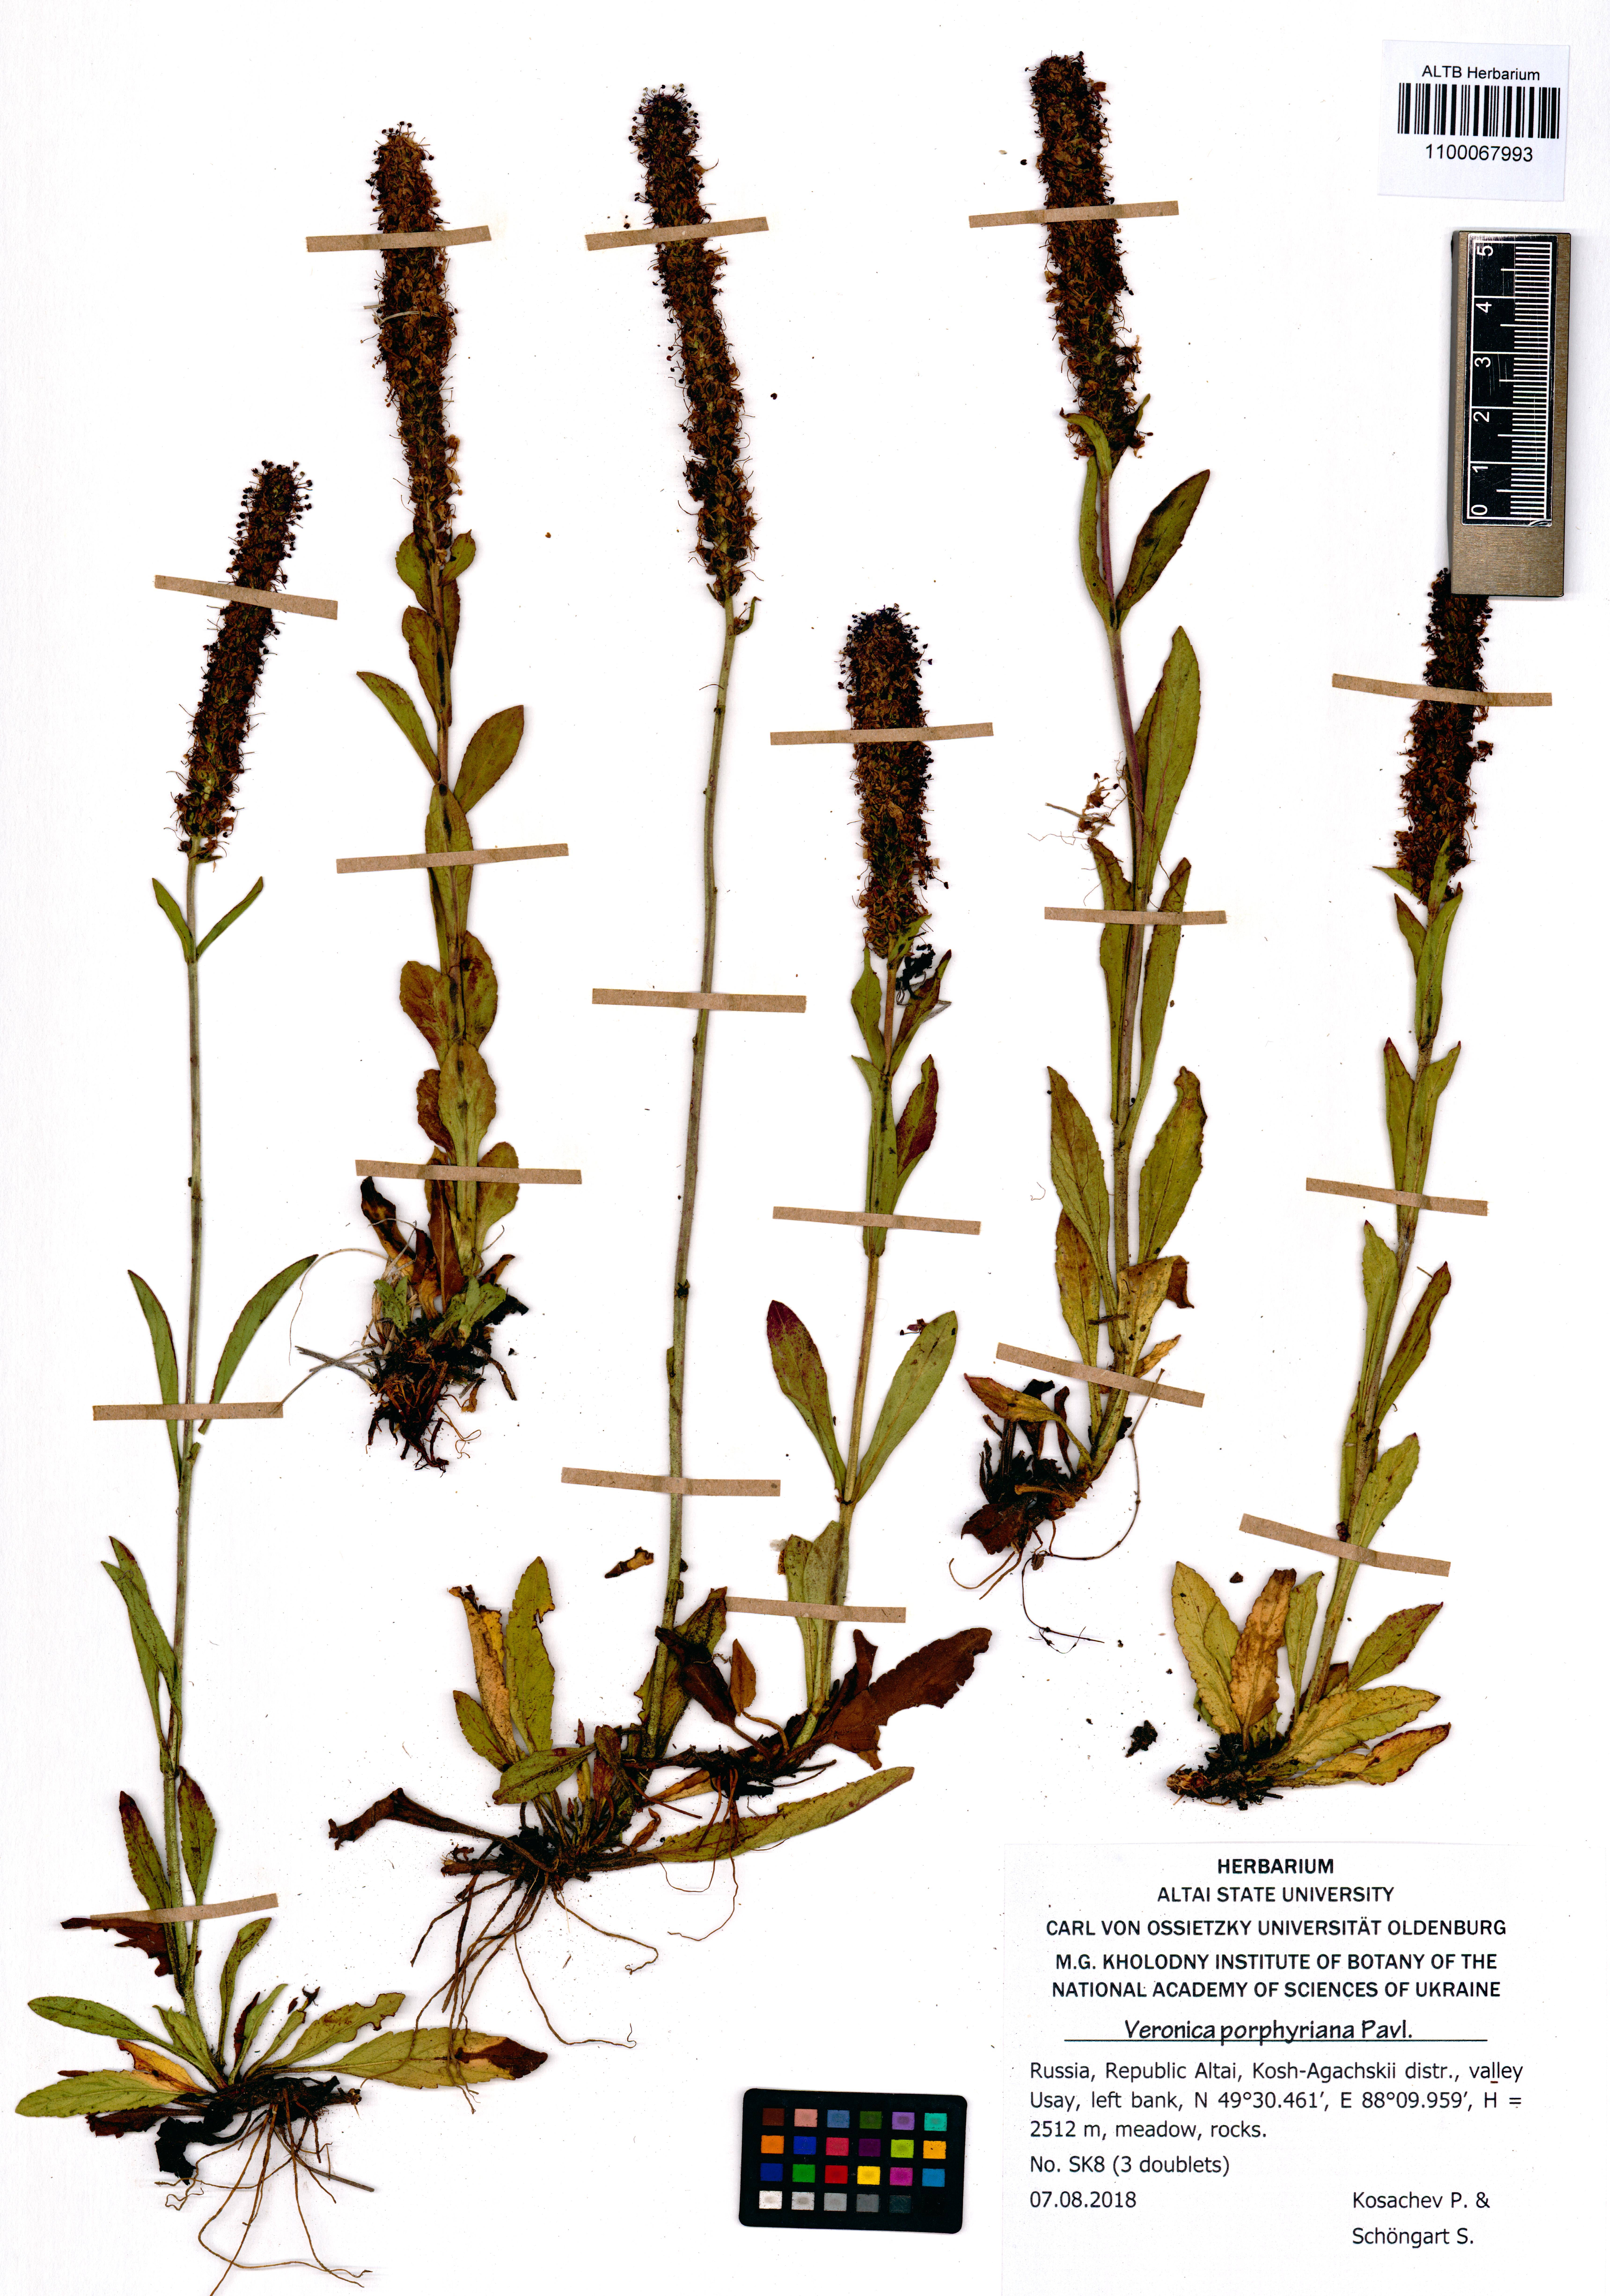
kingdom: Plantae
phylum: Tracheophyta
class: Magnoliopsida
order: Lamiales
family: Plantaginaceae
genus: Veronica
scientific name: Veronica porphyriana
